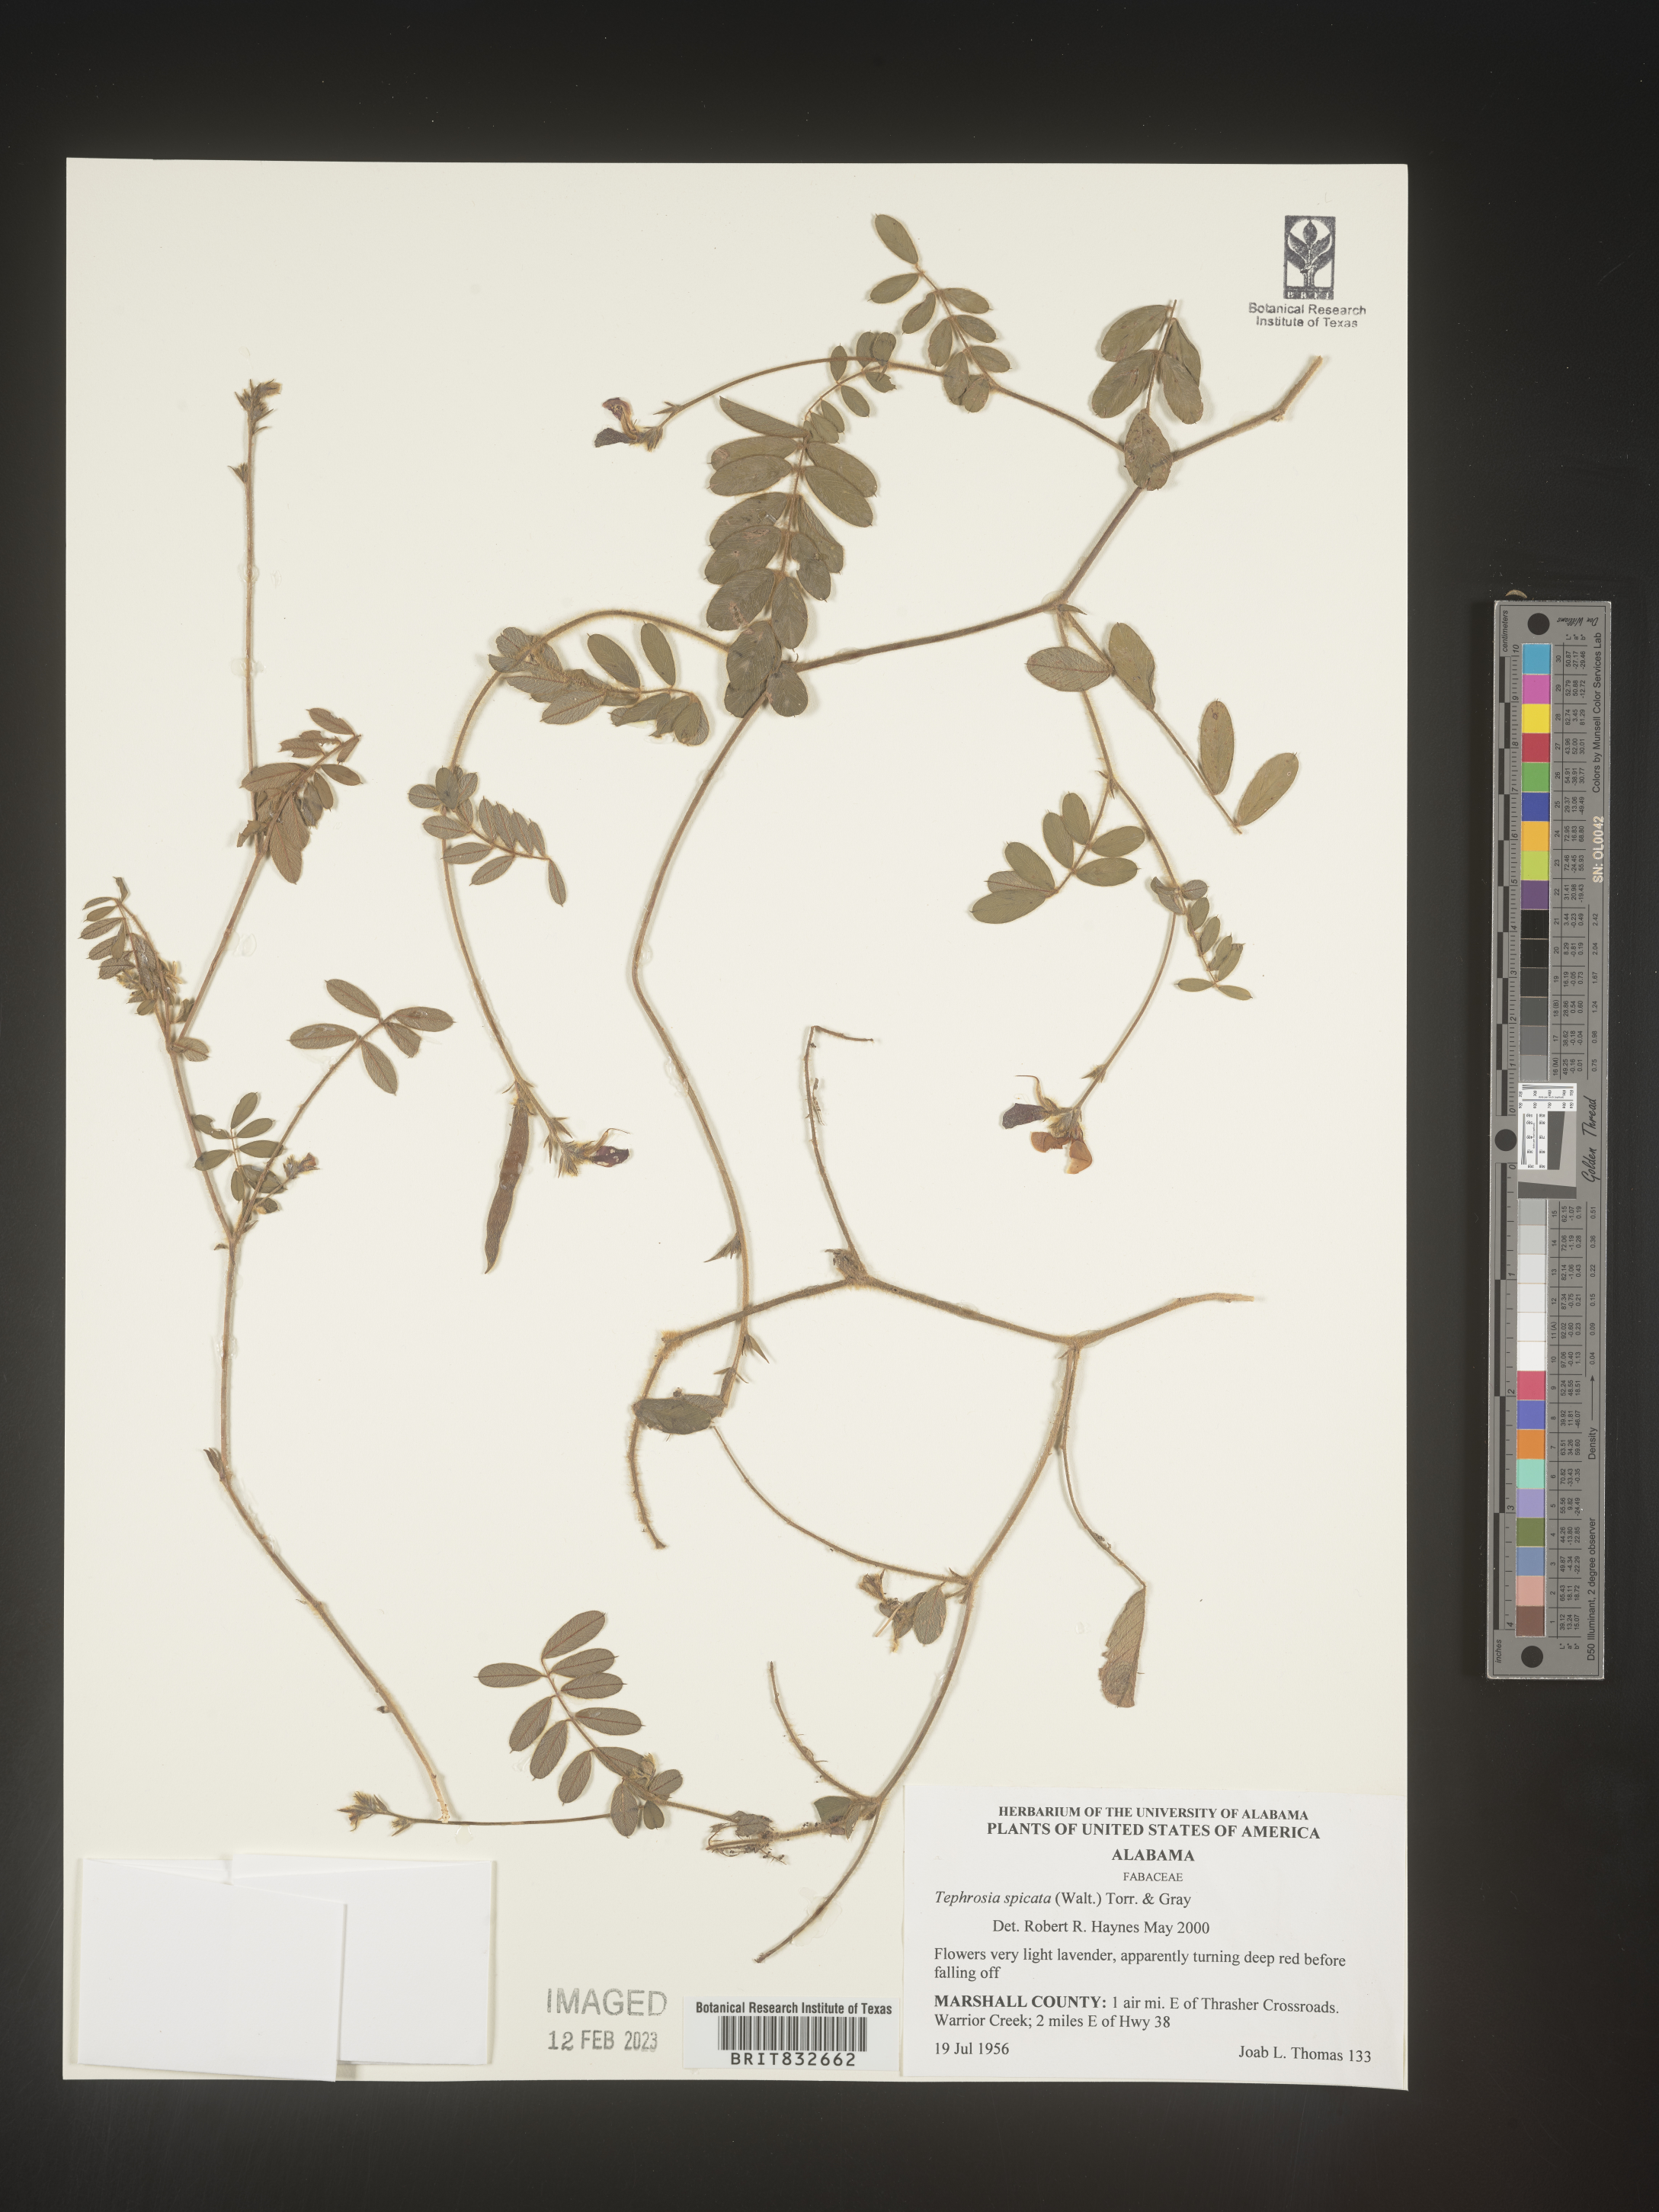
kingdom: Plantae
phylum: Tracheophyta
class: Magnoliopsida
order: Fabales
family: Fabaceae
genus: Tephrosia
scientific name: Tephrosia spicata
